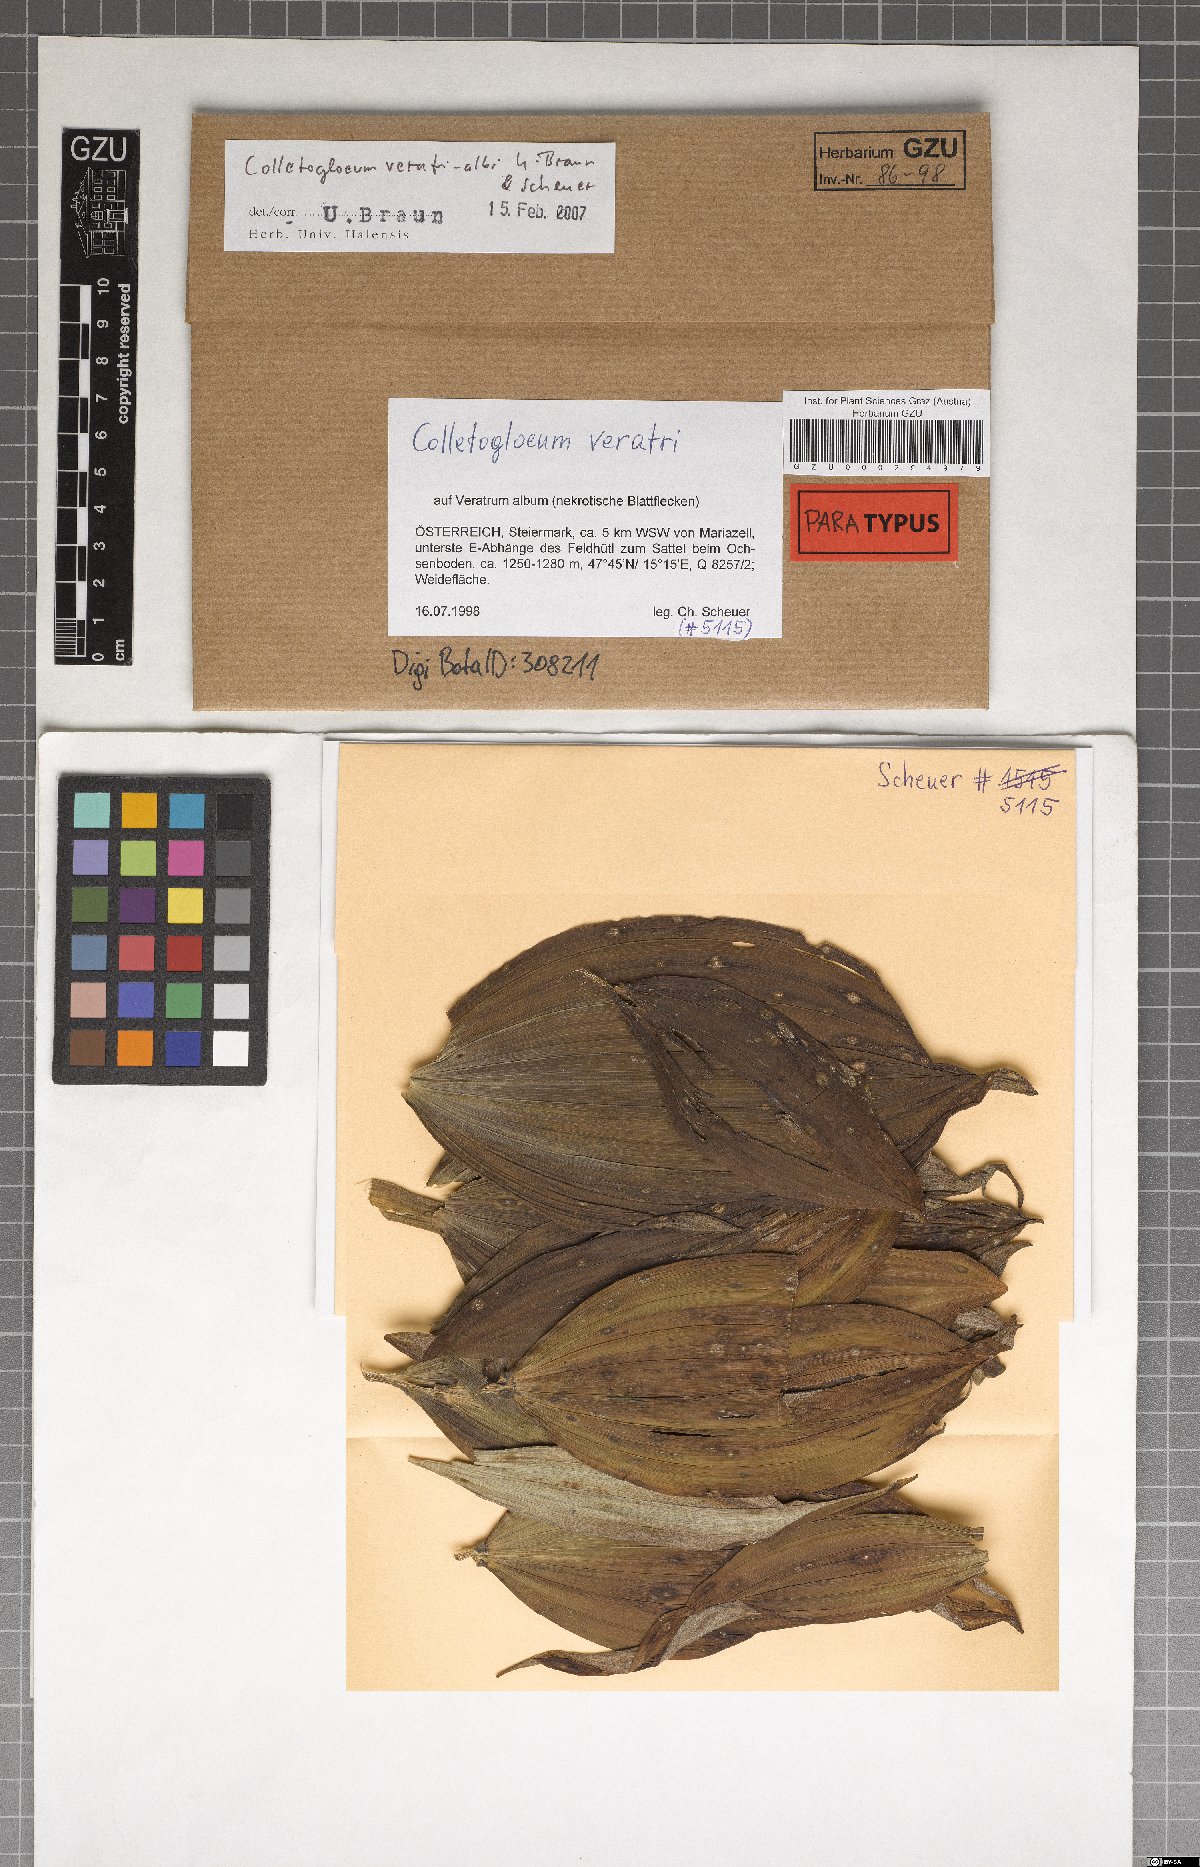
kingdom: Fungi
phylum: Ascomycota
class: Dothideomycetes
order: Mycosphaerellales
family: Mycosphaerellaceae
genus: Colletogloeum
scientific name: Colletogloeum veratri-albi
